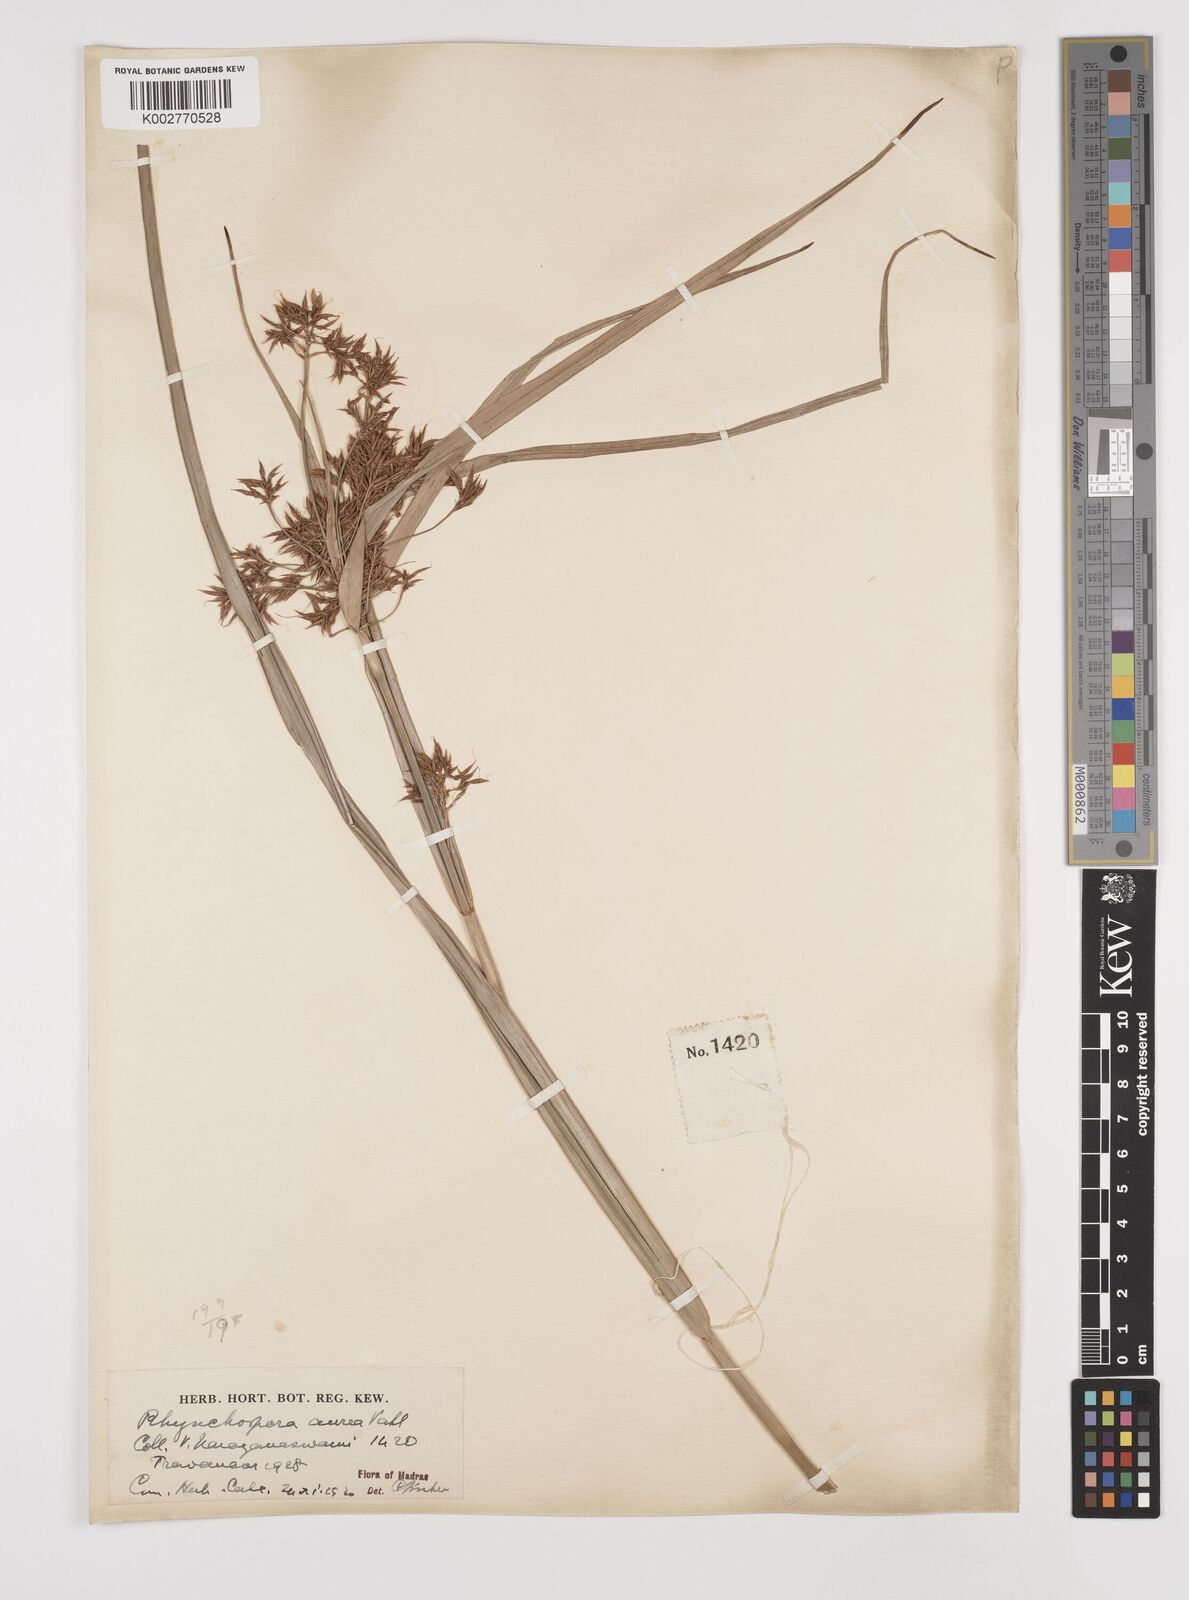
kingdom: Plantae
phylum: Tracheophyta
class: Liliopsida
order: Poales
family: Cyperaceae
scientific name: Cyperaceae
